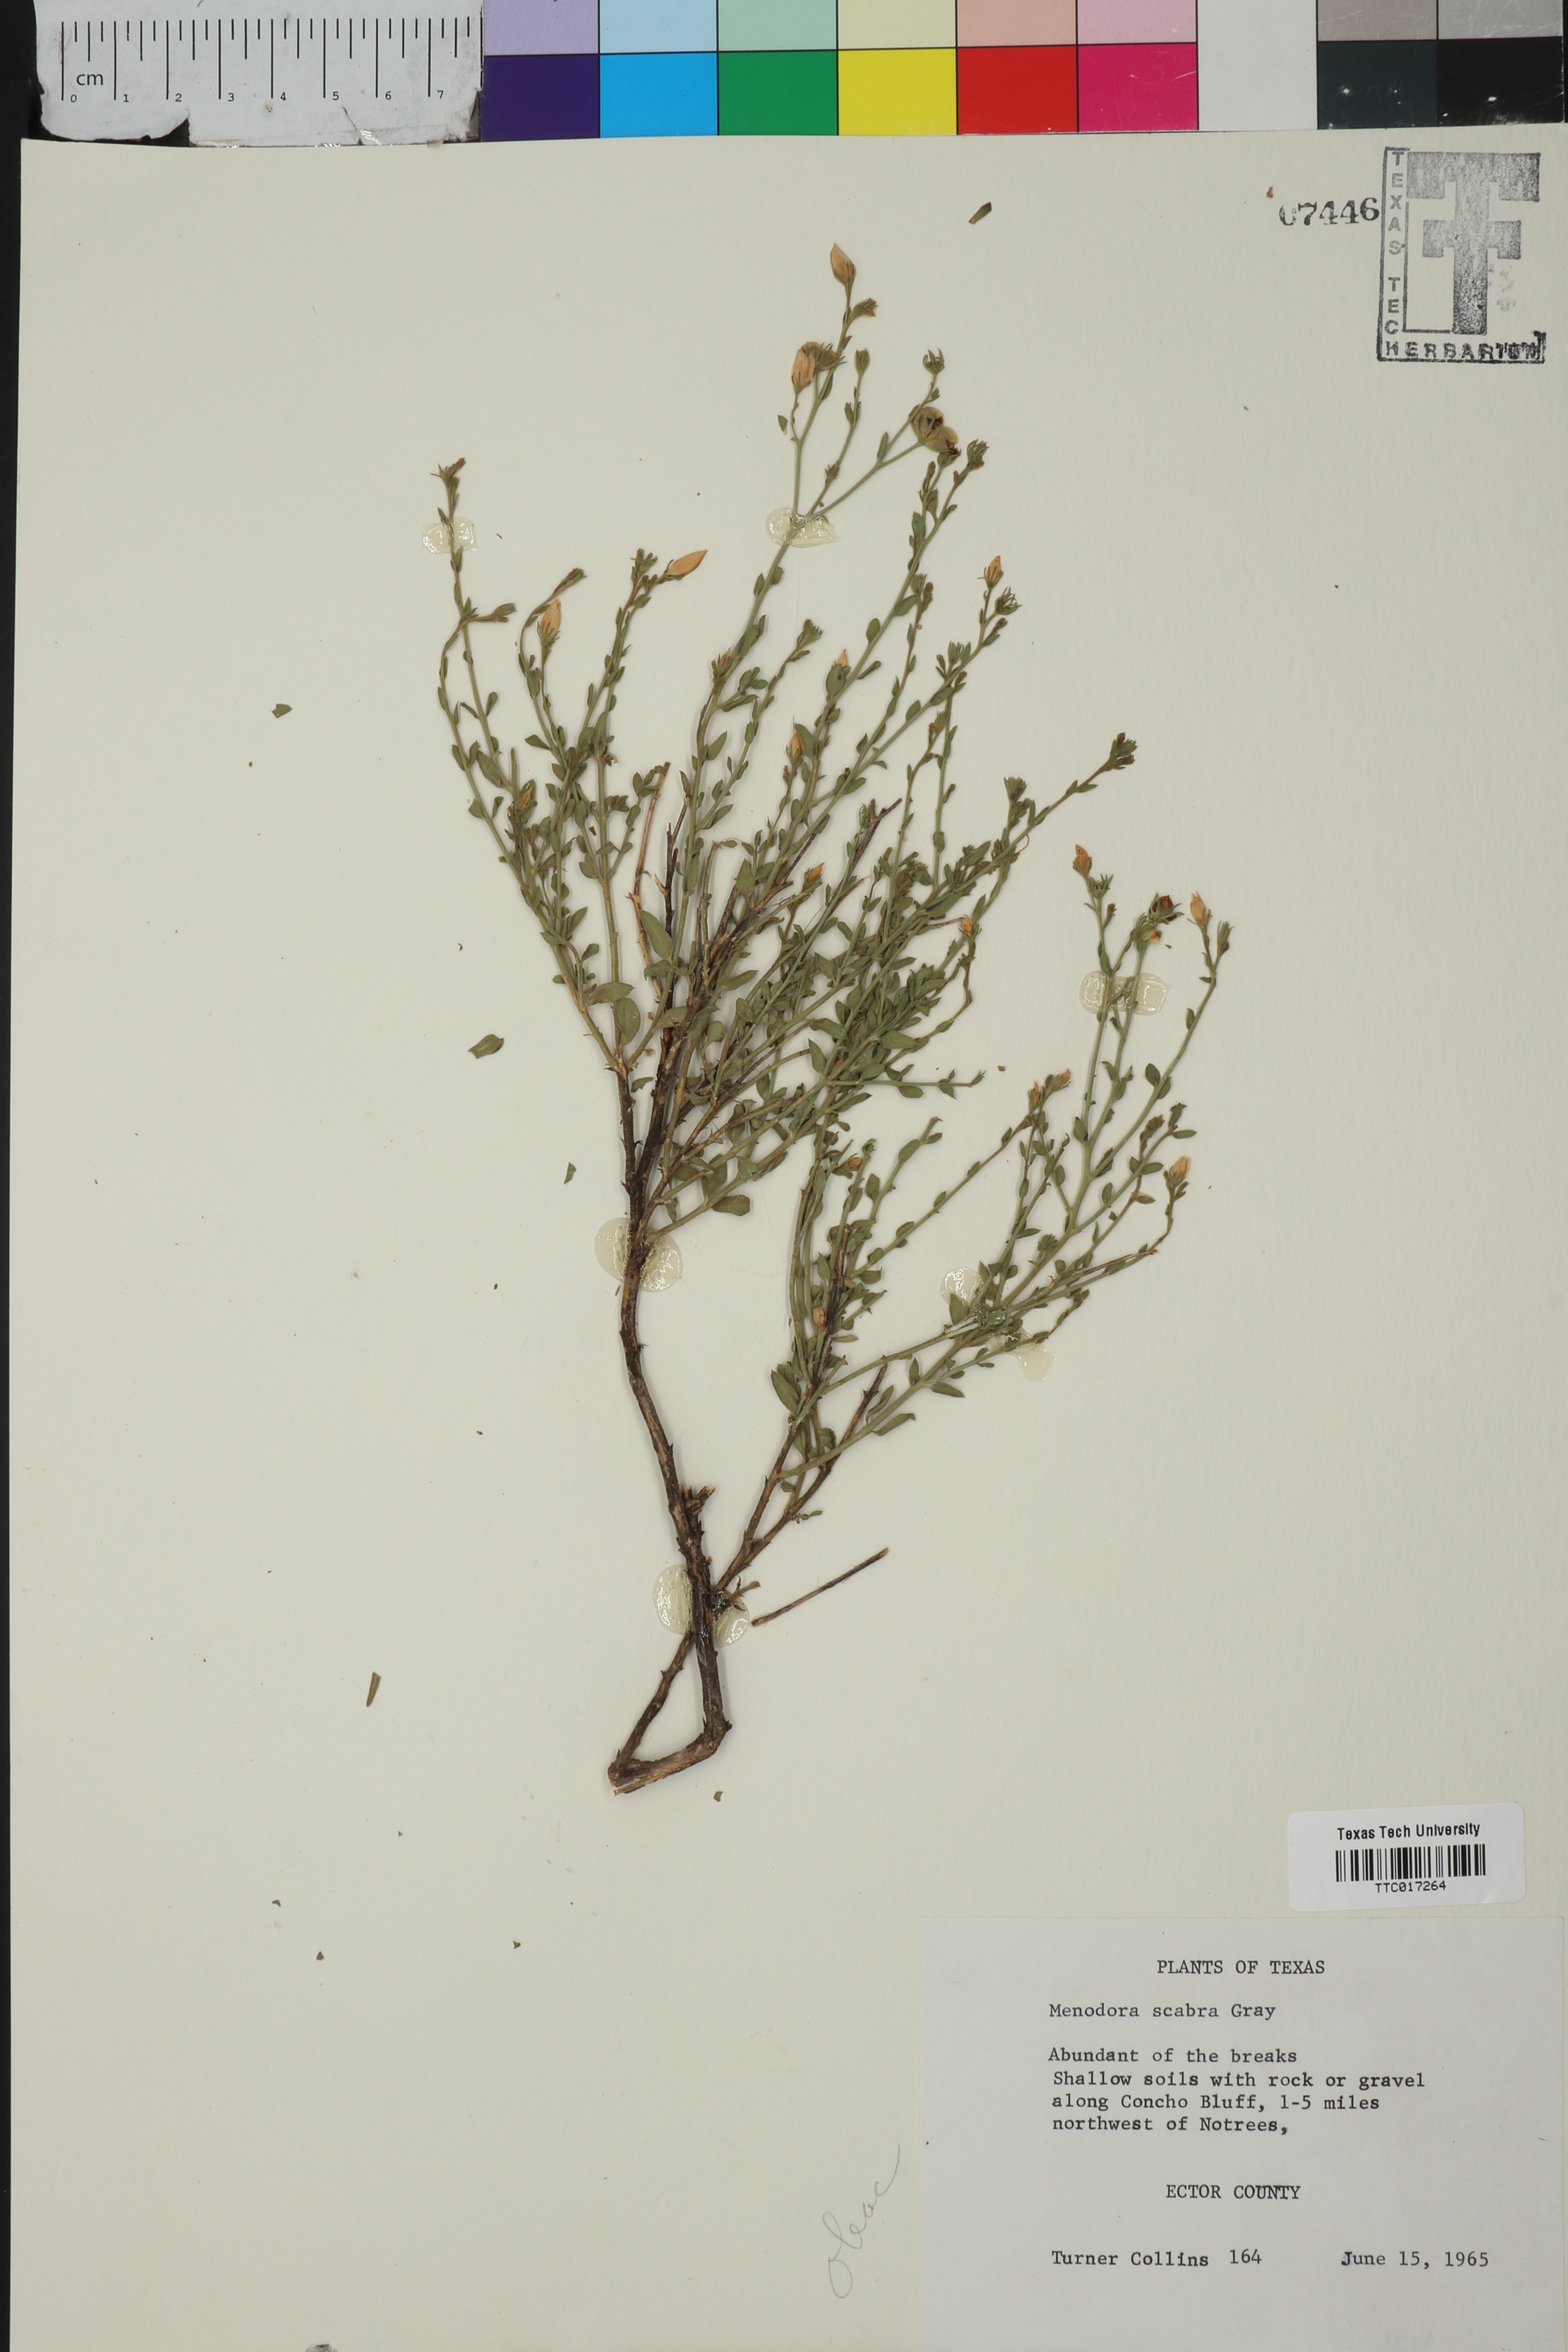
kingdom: Plantae
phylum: Tracheophyta
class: Magnoliopsida
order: Lamiales
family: Oleaceae
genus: Menodora
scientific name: Menodora scabra
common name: Rough menodora
